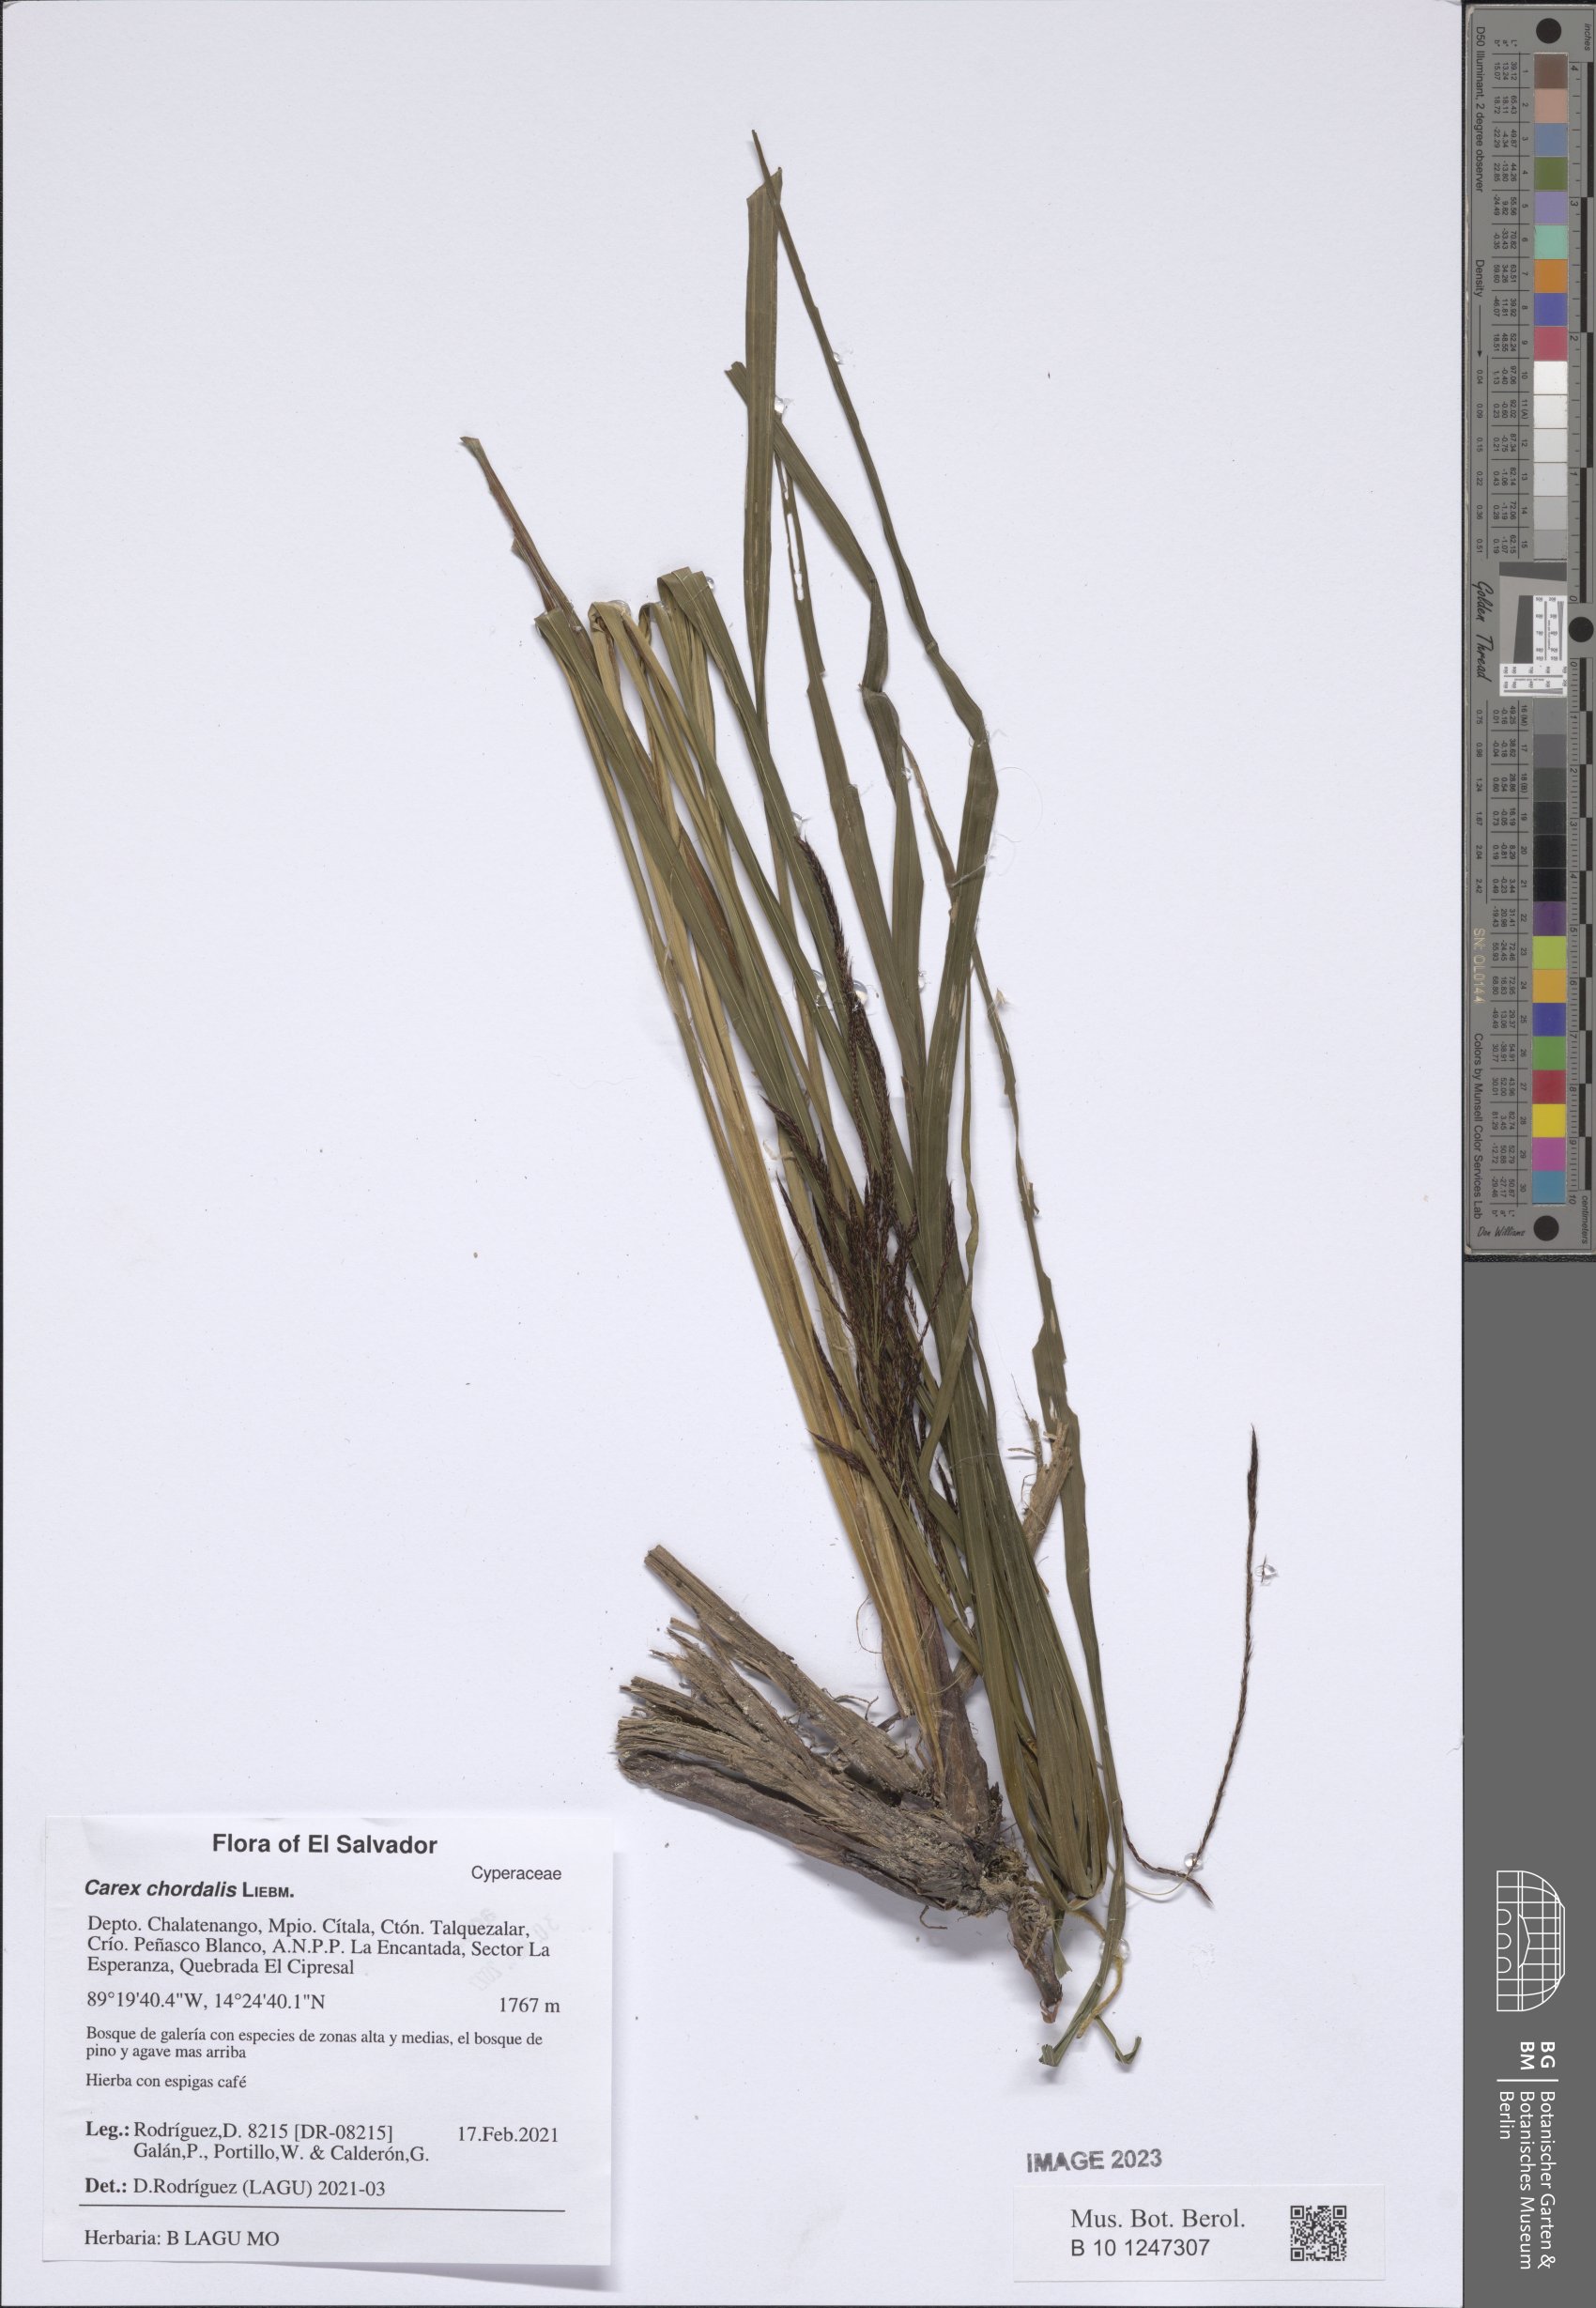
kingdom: Plantae
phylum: Tracheophyta
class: Liliopsida
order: Poales
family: Cyperaceae
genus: Carex
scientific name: Carex chordalis
